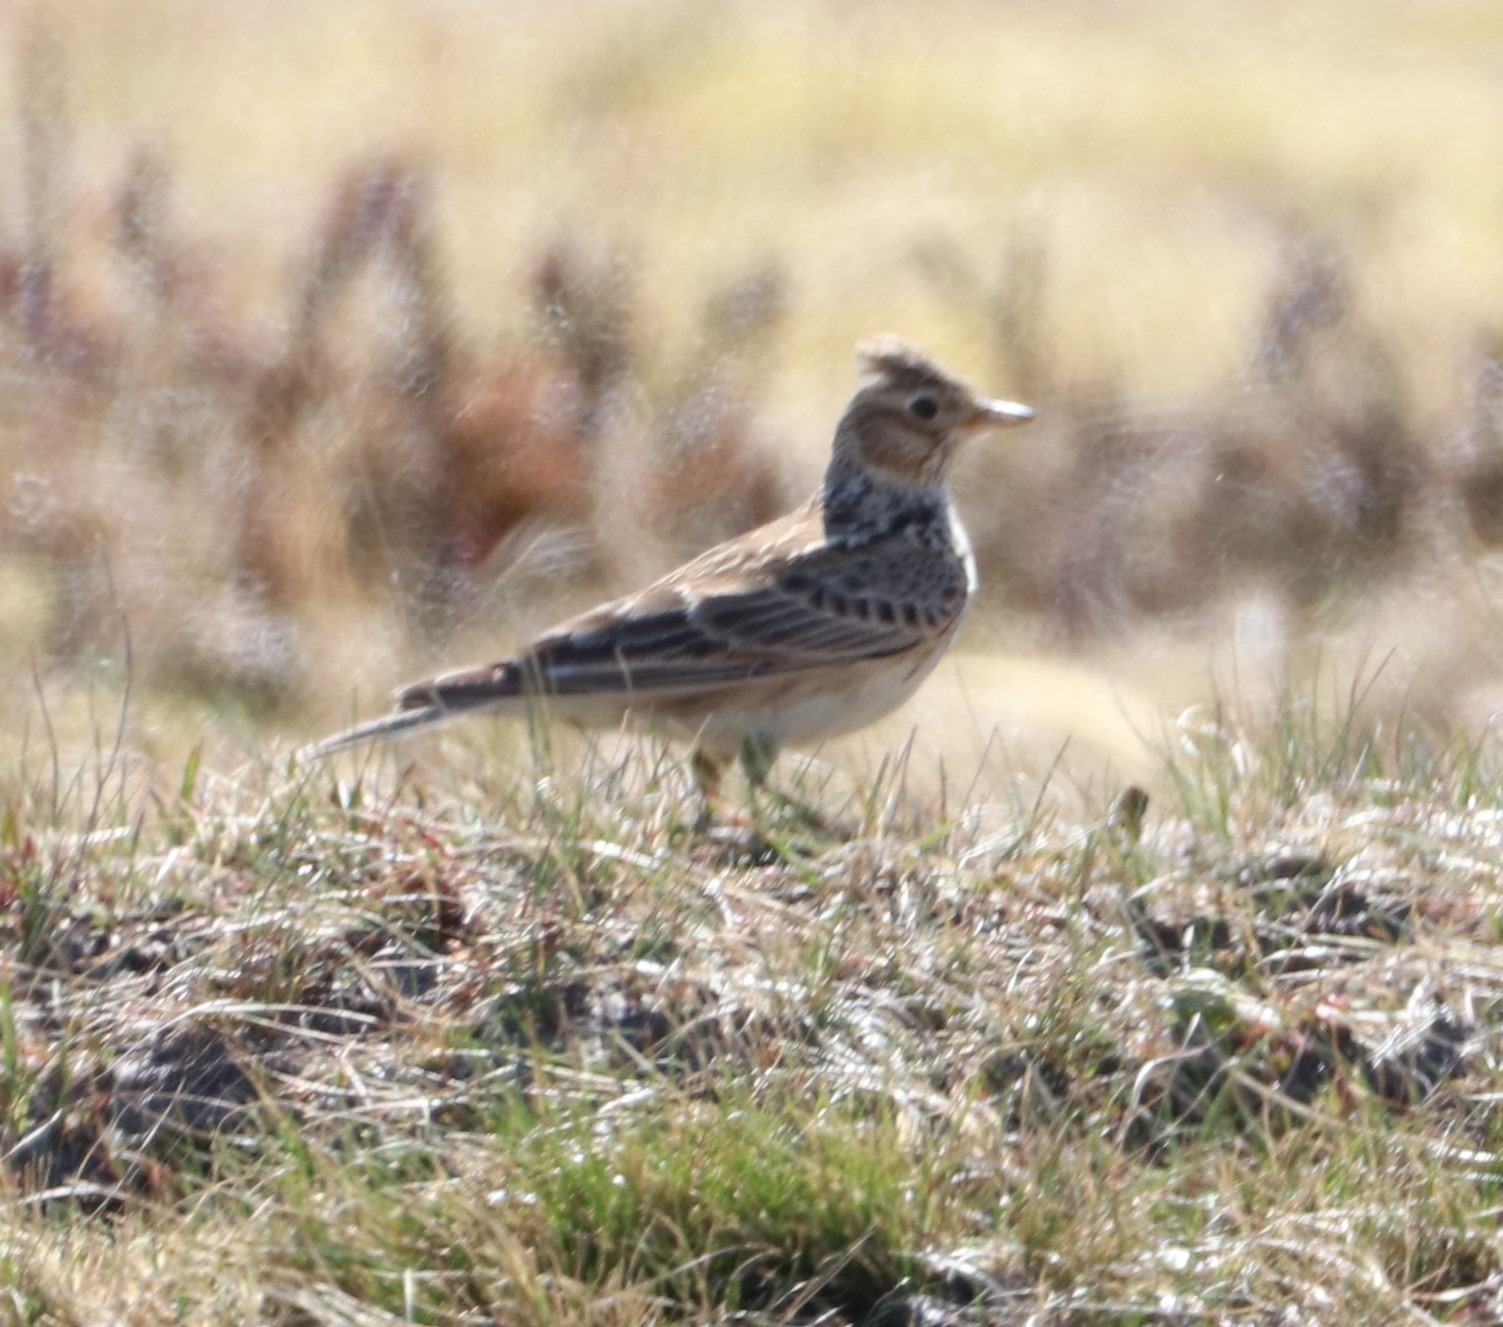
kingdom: Animalia
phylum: Chordata
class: Aves
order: Passeriformes
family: Alaudidae
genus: Alauda
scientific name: Alauda arvensis
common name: Sanglærke
